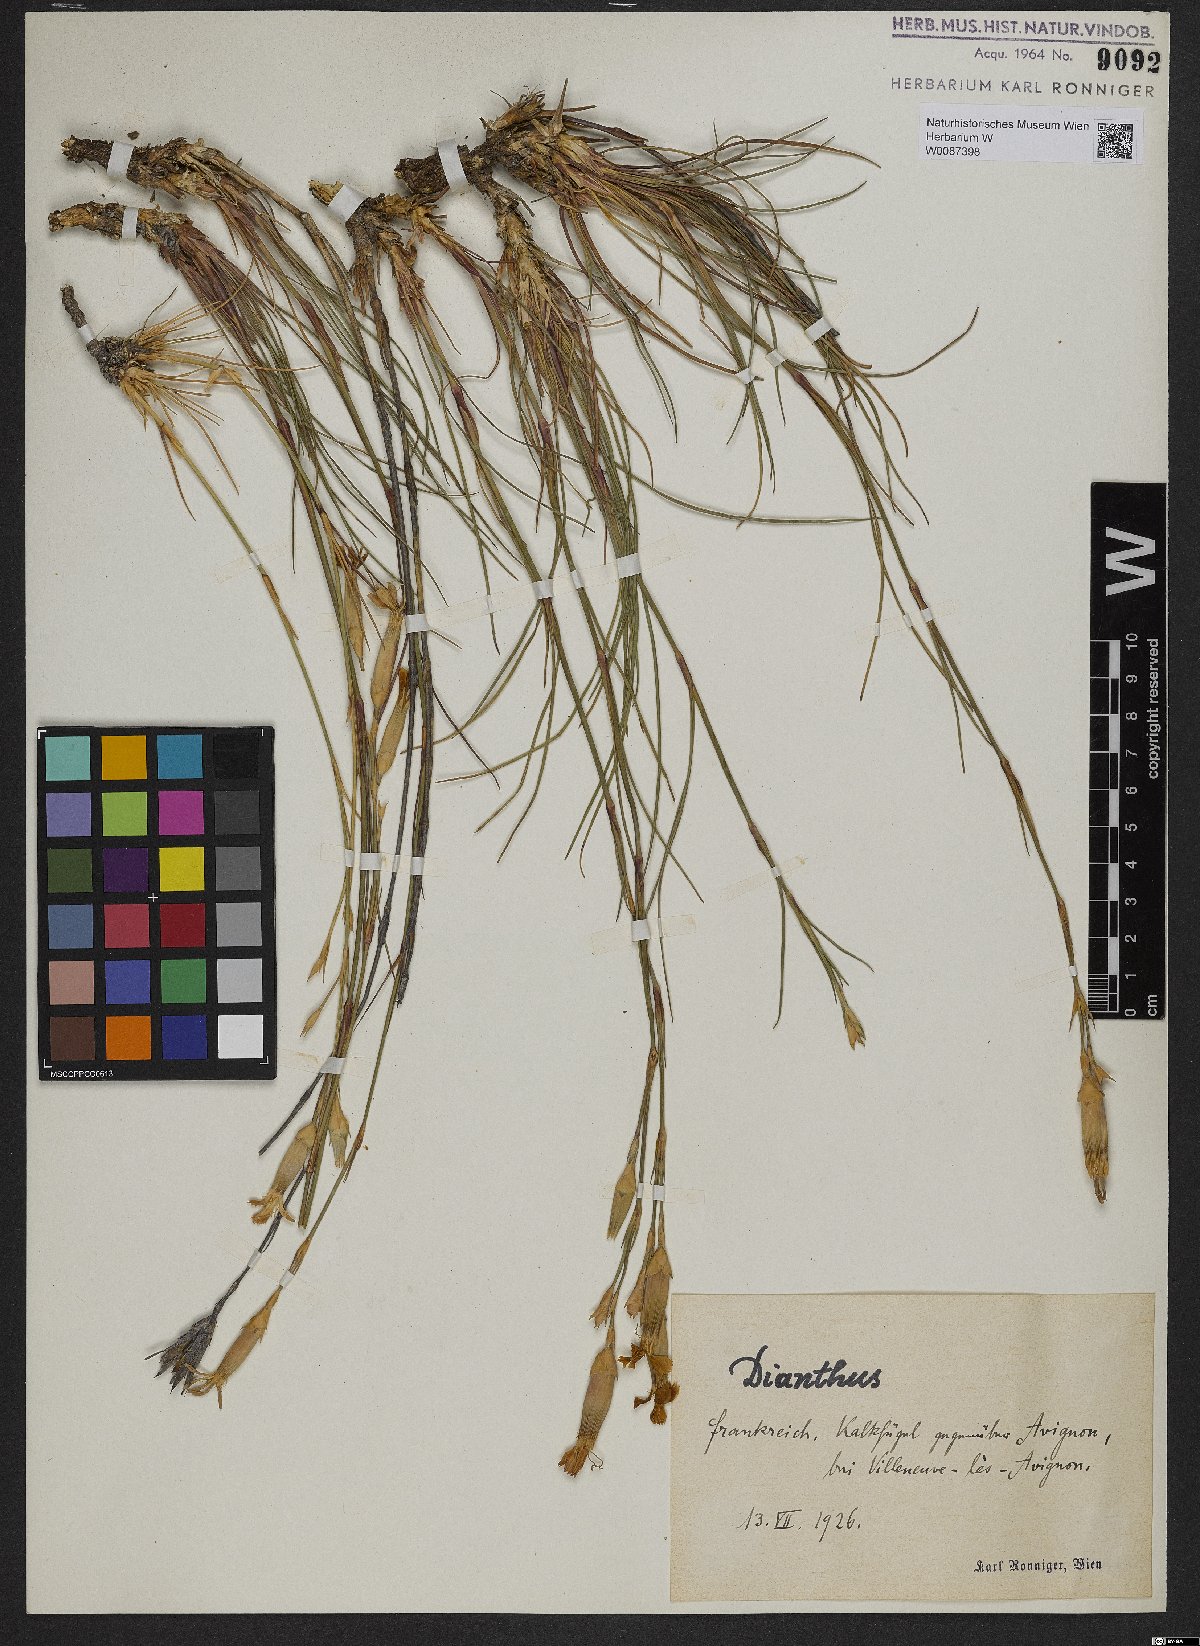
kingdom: Plantae
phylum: Tracheophyta
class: Magnoliopsida
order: Caryophyllales
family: Caryophyllaceae
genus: Dianthus
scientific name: Dianthus
